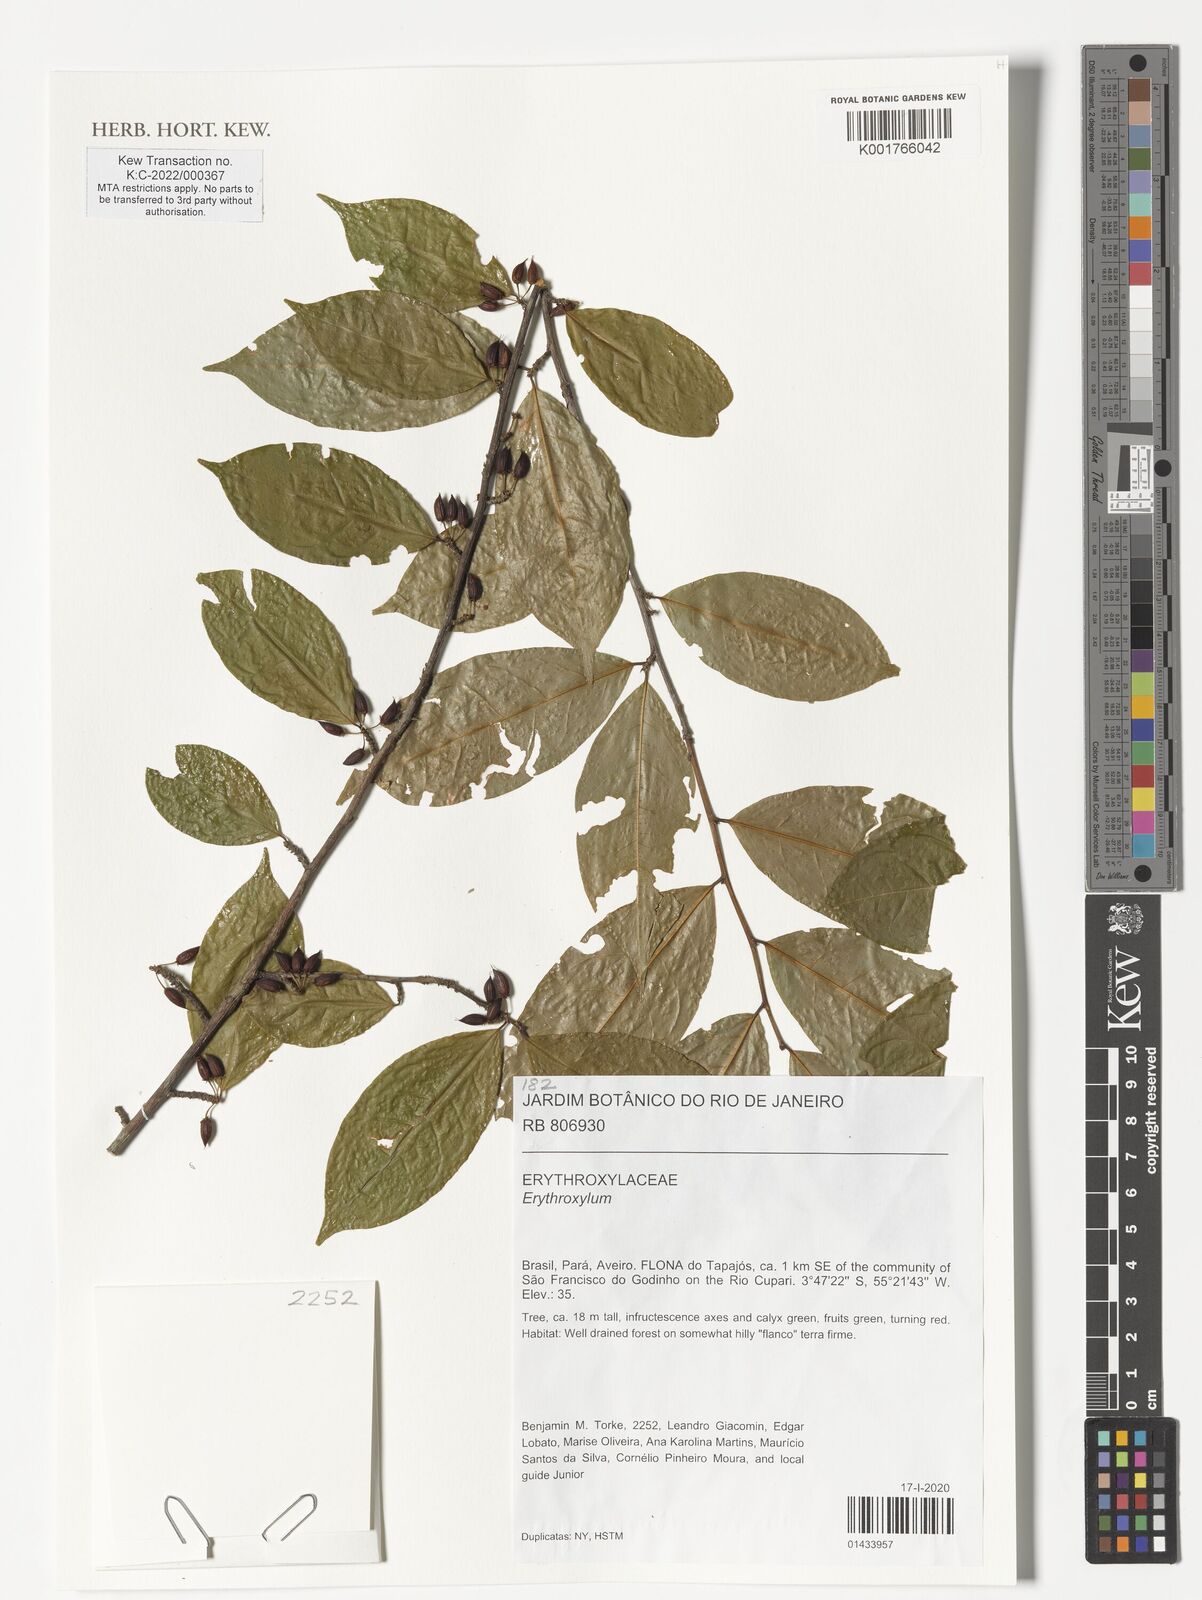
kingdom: Plantae
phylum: Tracheophyta
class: Magnoliopsida
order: Malpighiales
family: Erythroxylaceae
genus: Erythroxylum
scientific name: Erythroxylum
